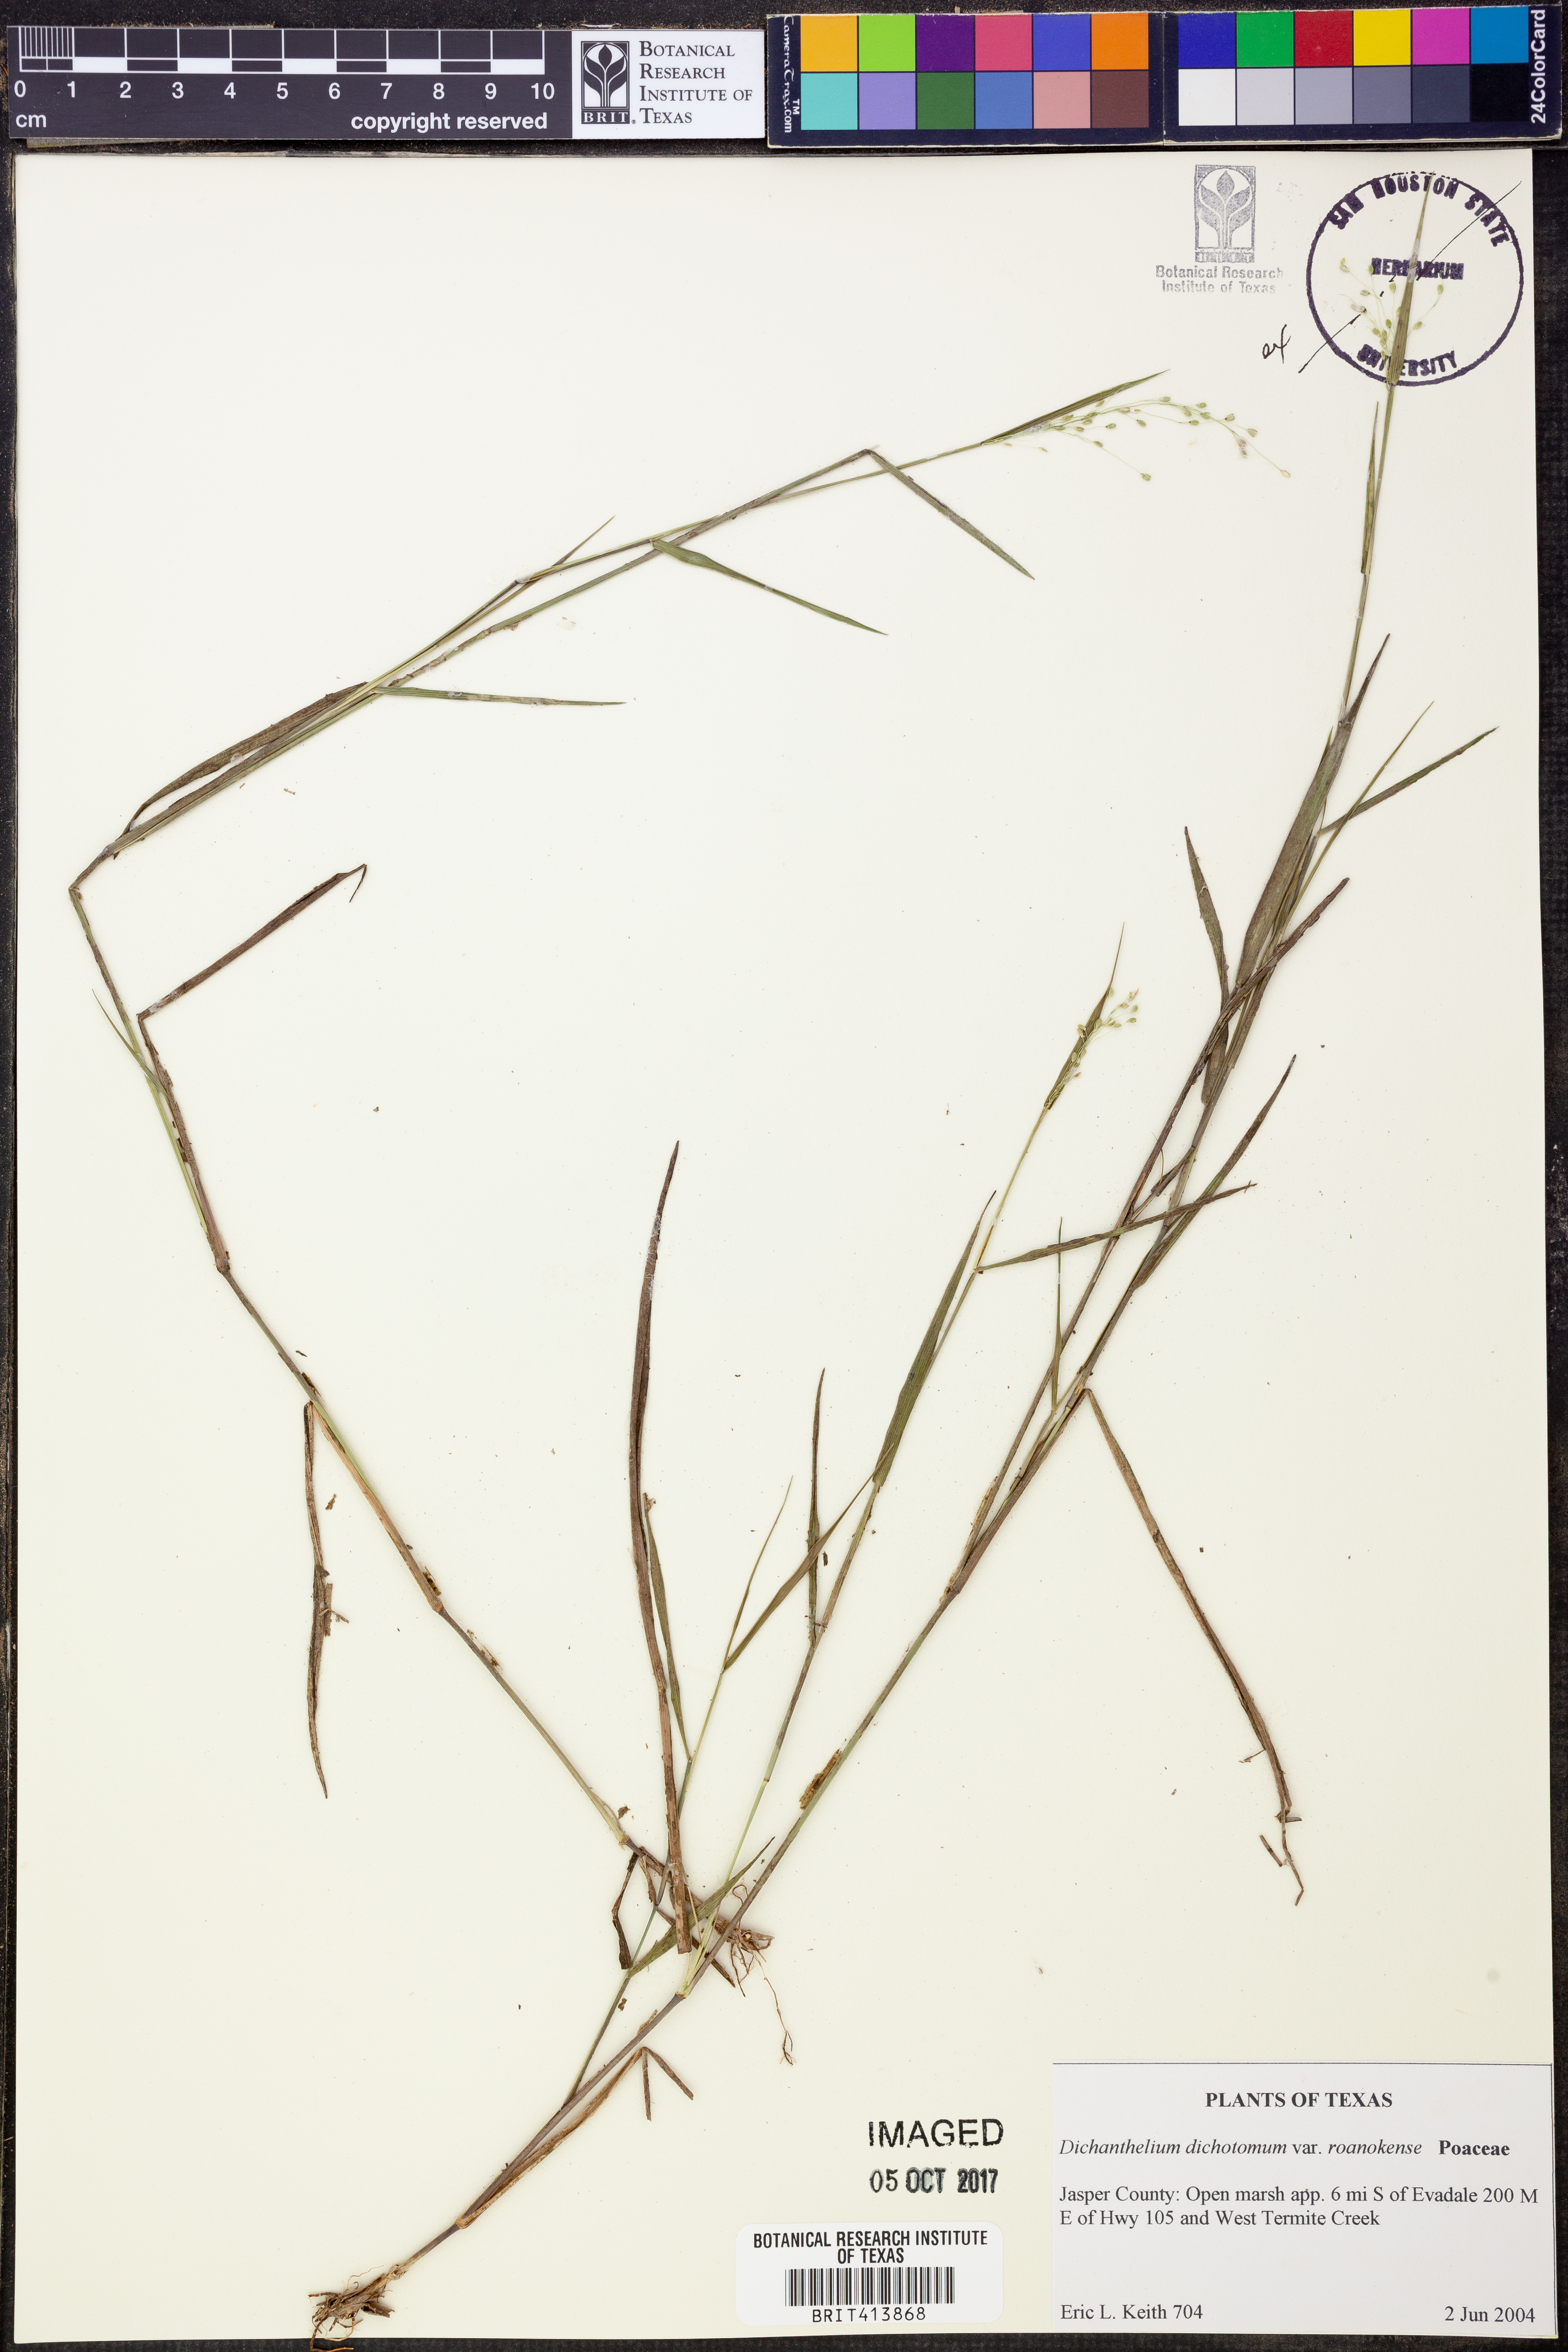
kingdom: Plantae
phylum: Tracheophyta
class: Liliopsida
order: Poales
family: Poaceae
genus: Dichanthelium
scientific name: Dichanthelium roanokense
